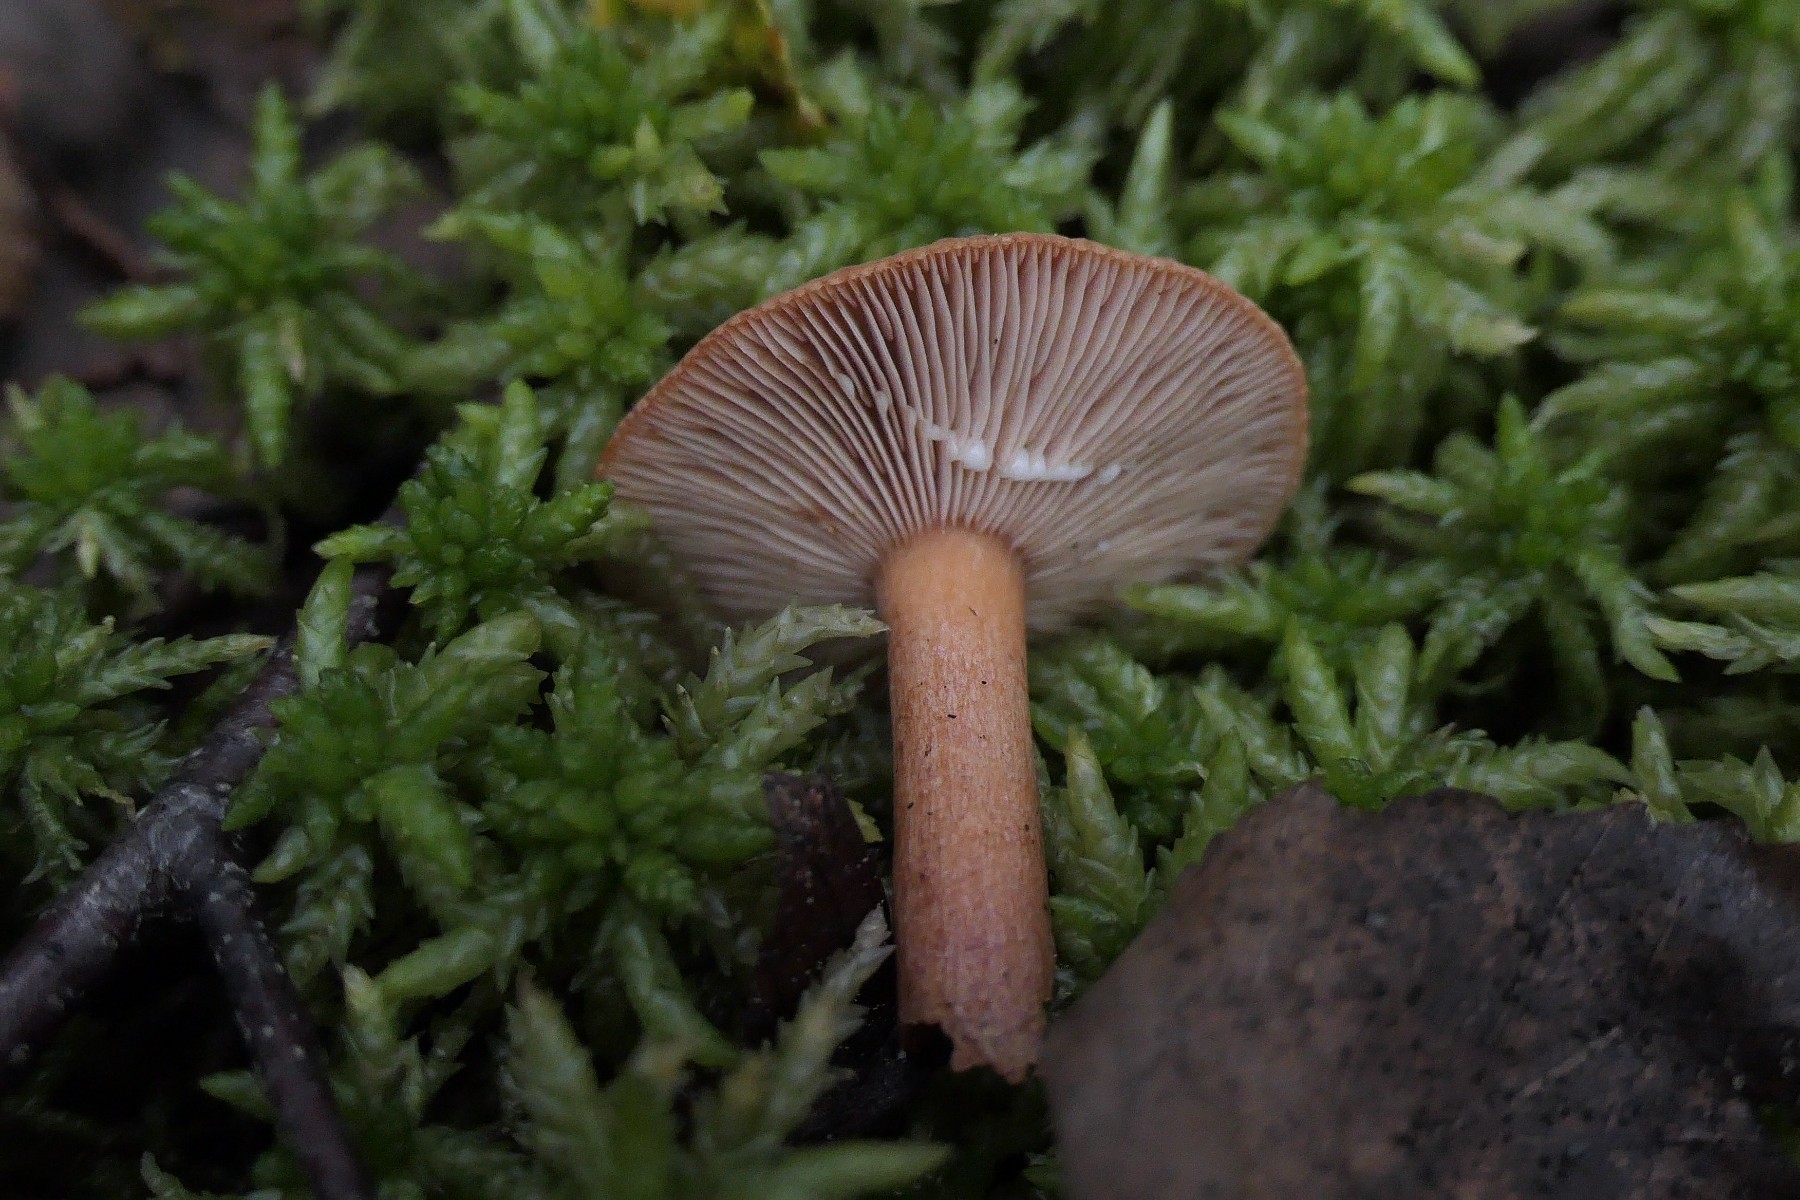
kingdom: Fungi
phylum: Basidiomycota
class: Agaricomycetes
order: Russulales
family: Russulaceae
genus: Lactarius
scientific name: Lactarius tabidus
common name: rynket mælkehat
